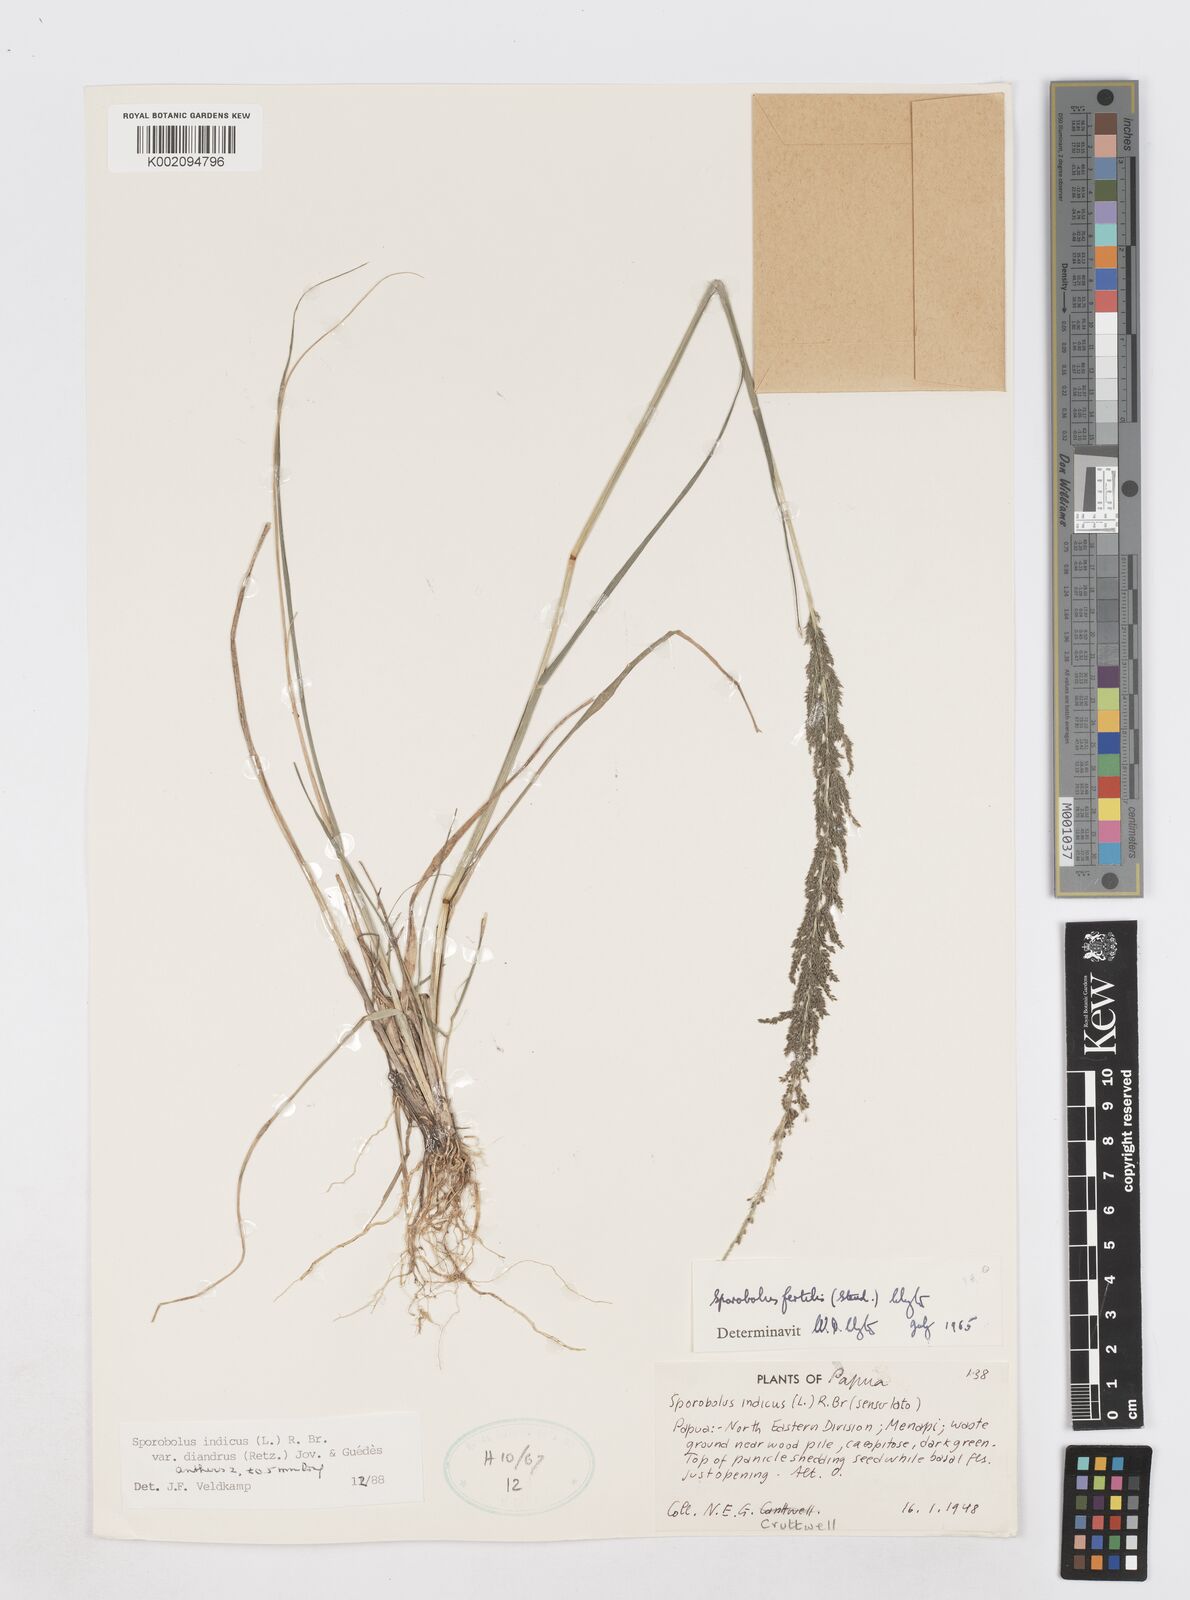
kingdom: Plantae
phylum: Tracheophyta
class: Liliopsida
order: Poales
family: Poaceae
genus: Sporobolus
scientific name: Sporobolus diandrus
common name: Tussock dropseed
